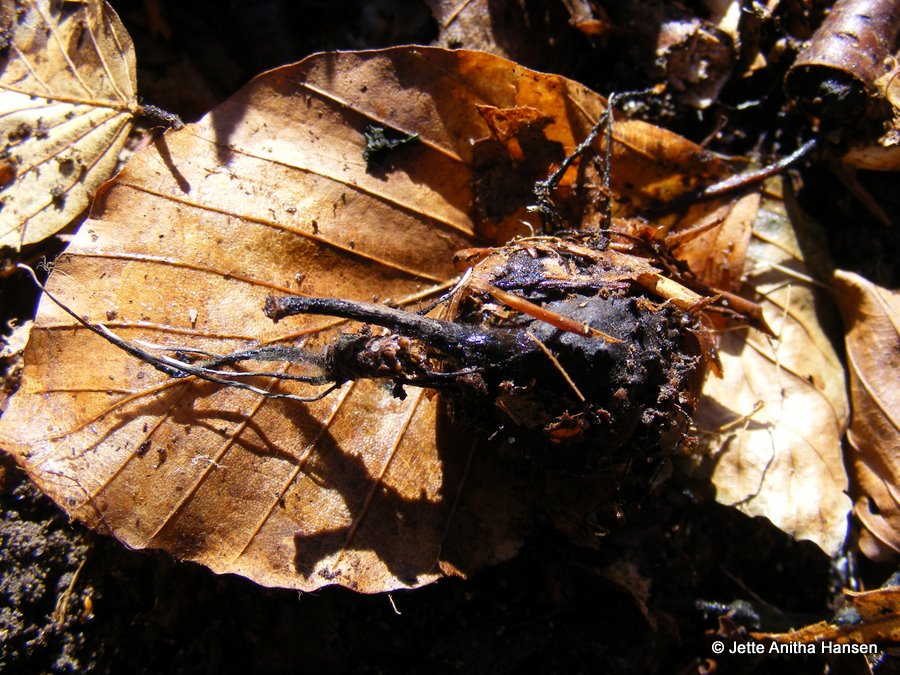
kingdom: Fungi
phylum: Ascomycota
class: Sordariomycetes
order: Xylariales
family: Xylariaceae
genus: Xylaria
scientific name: Xylaria carpophila
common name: bogskål-stødsvamp
